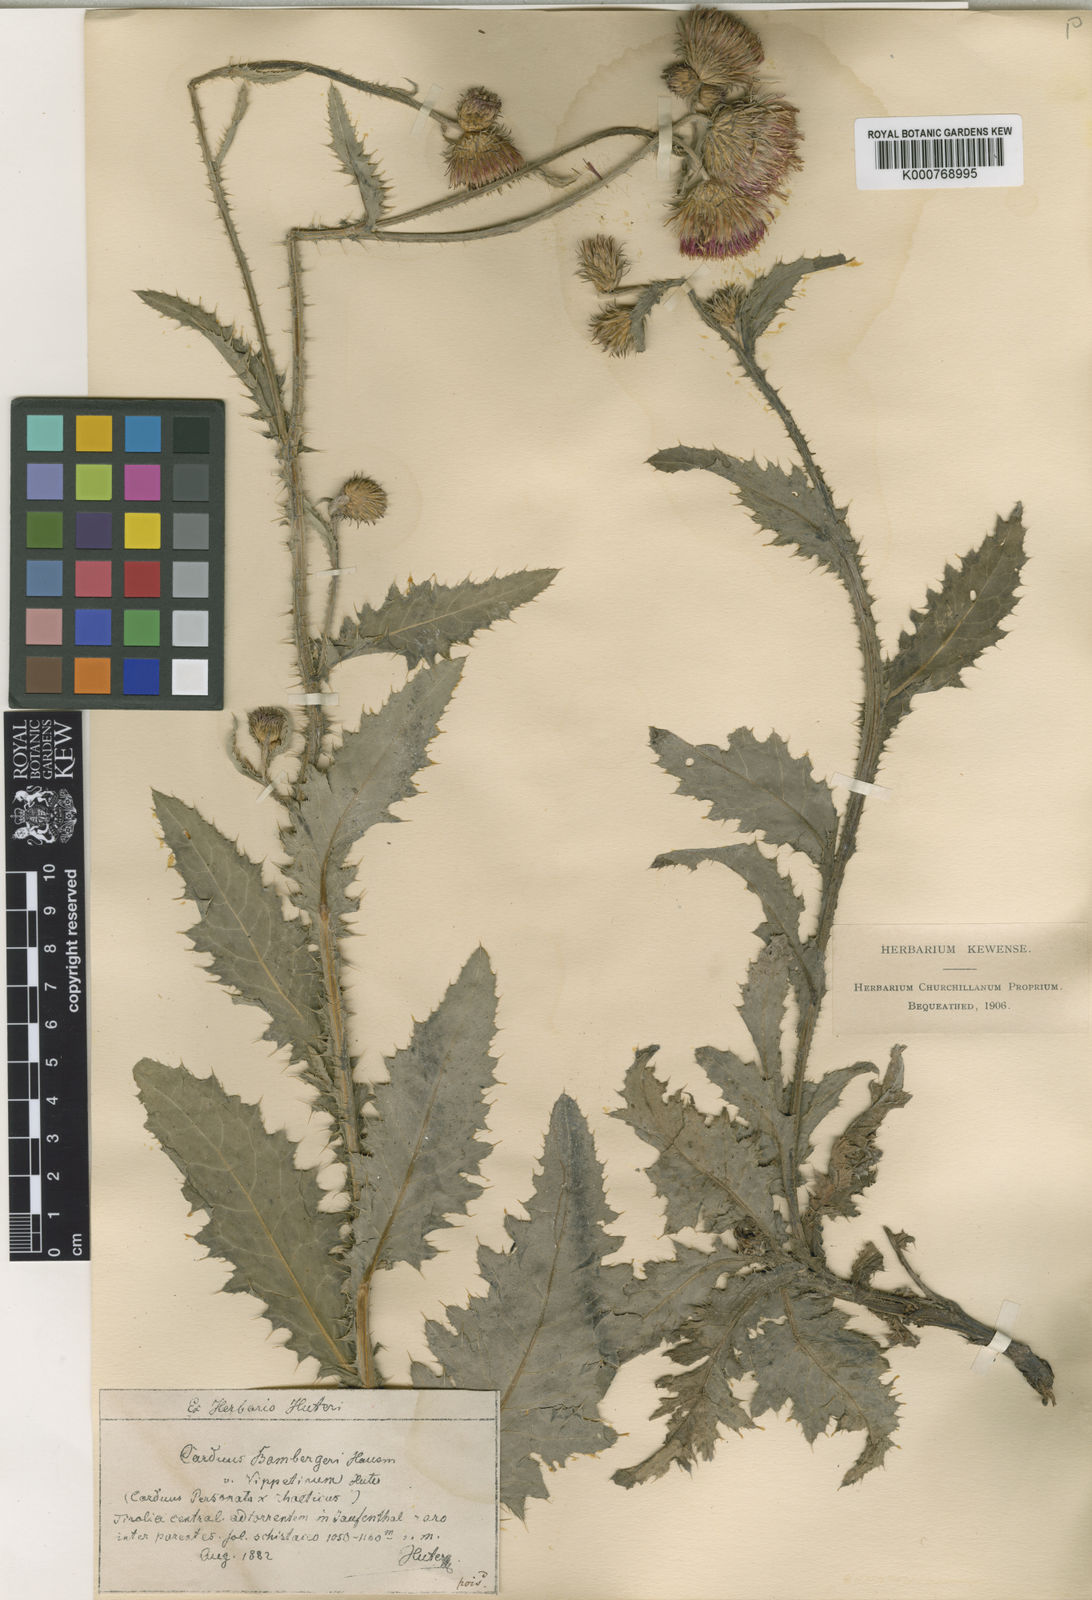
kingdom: Plantae
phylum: Tracheophyta
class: Magnoliopsida
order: Asterales
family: Asteraceae
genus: Carduus
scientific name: Carduus defloratus
